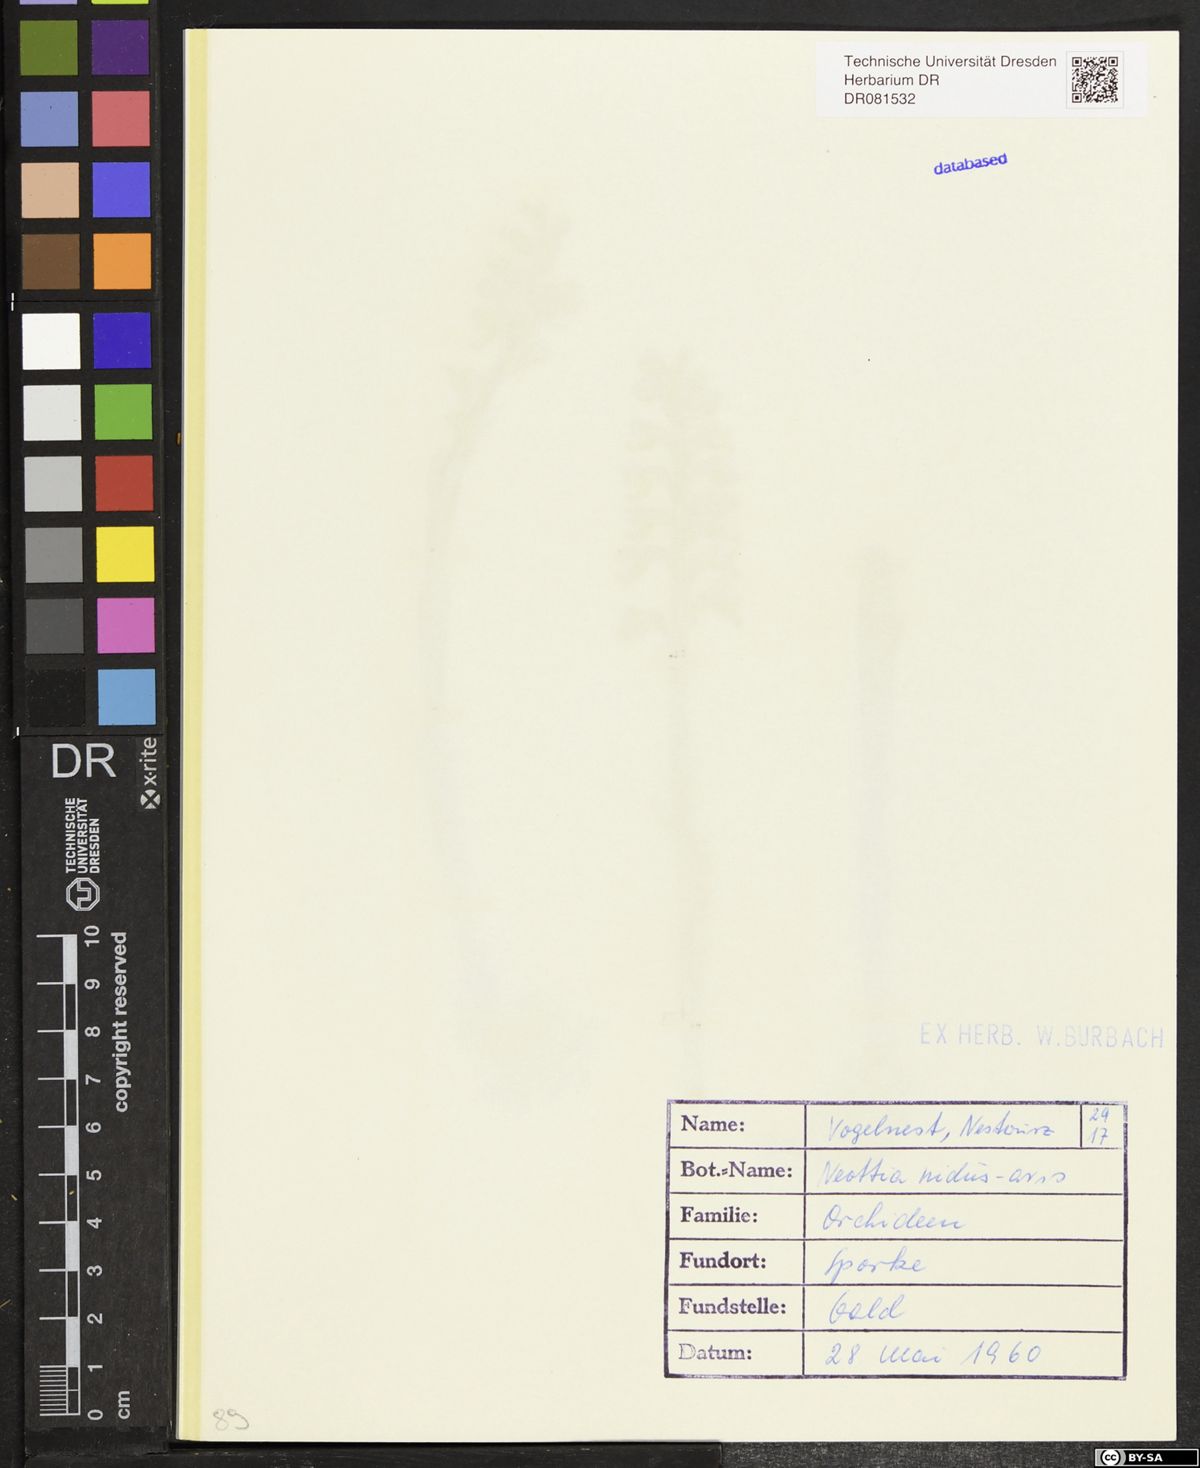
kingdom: Plantae
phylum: Tracheophyta
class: Liliopsida
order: Asparagales
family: Orchidaceae
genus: Neottia
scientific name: Neottia nidus-avis
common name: Bird's-nest orchid
